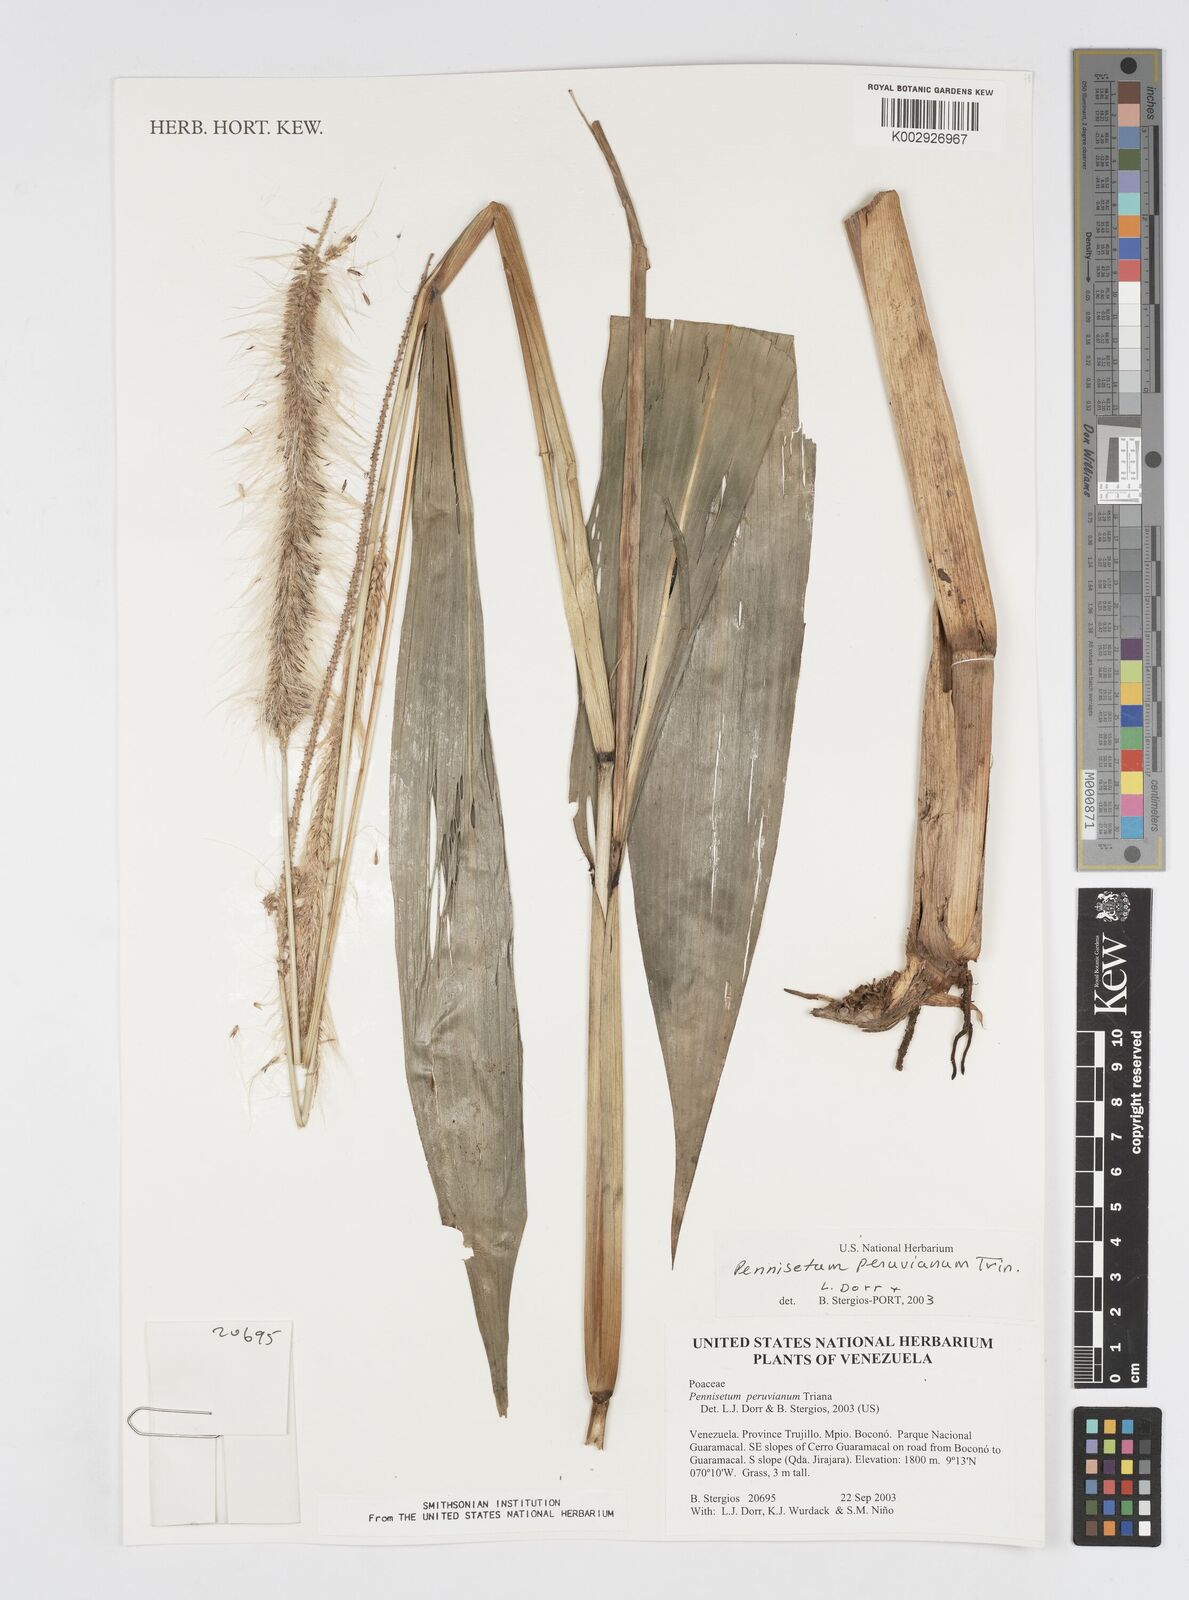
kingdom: Plantae
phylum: Tracheophyta
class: Liliopsida
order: Poales
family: Poaceae
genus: Cenchrus
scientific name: Cenchrus peruvianus
